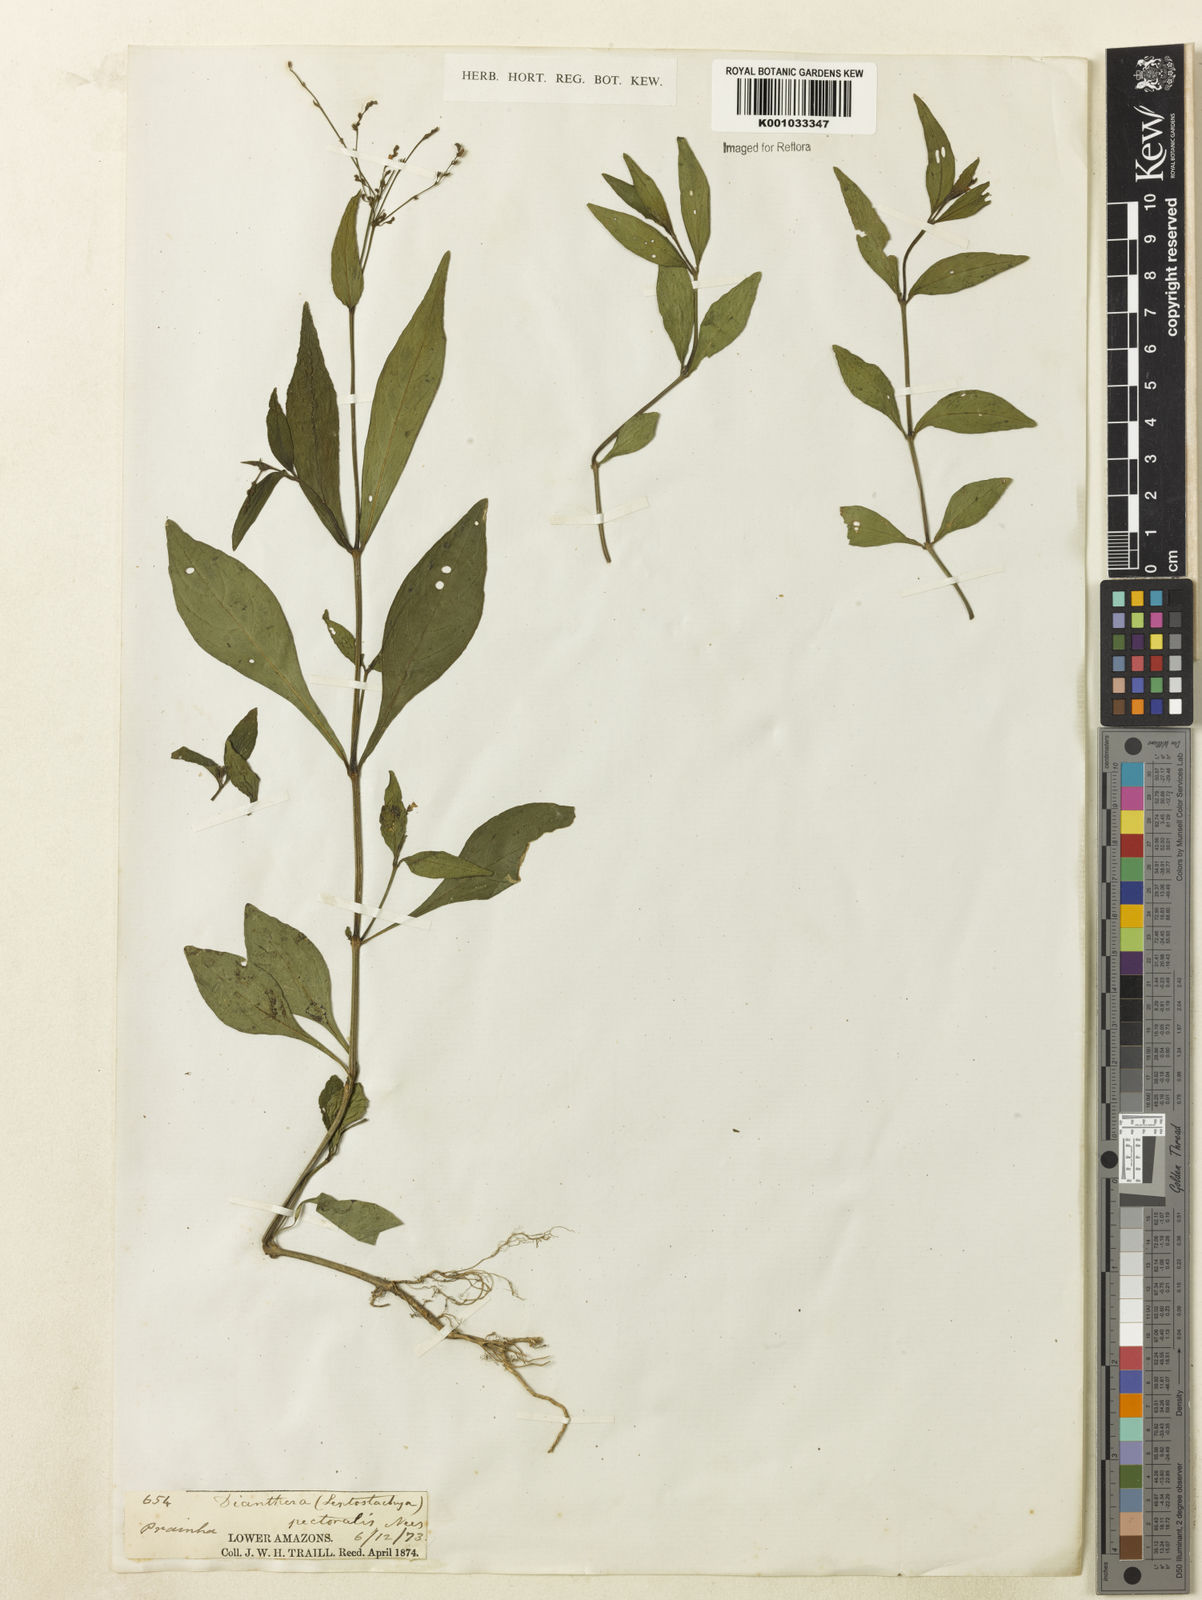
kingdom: Plantae
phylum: Tracheophyta
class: Magnoliopsida
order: Lamiales
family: Acanthaceae
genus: Dianthera
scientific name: Dianthera pectoralis
